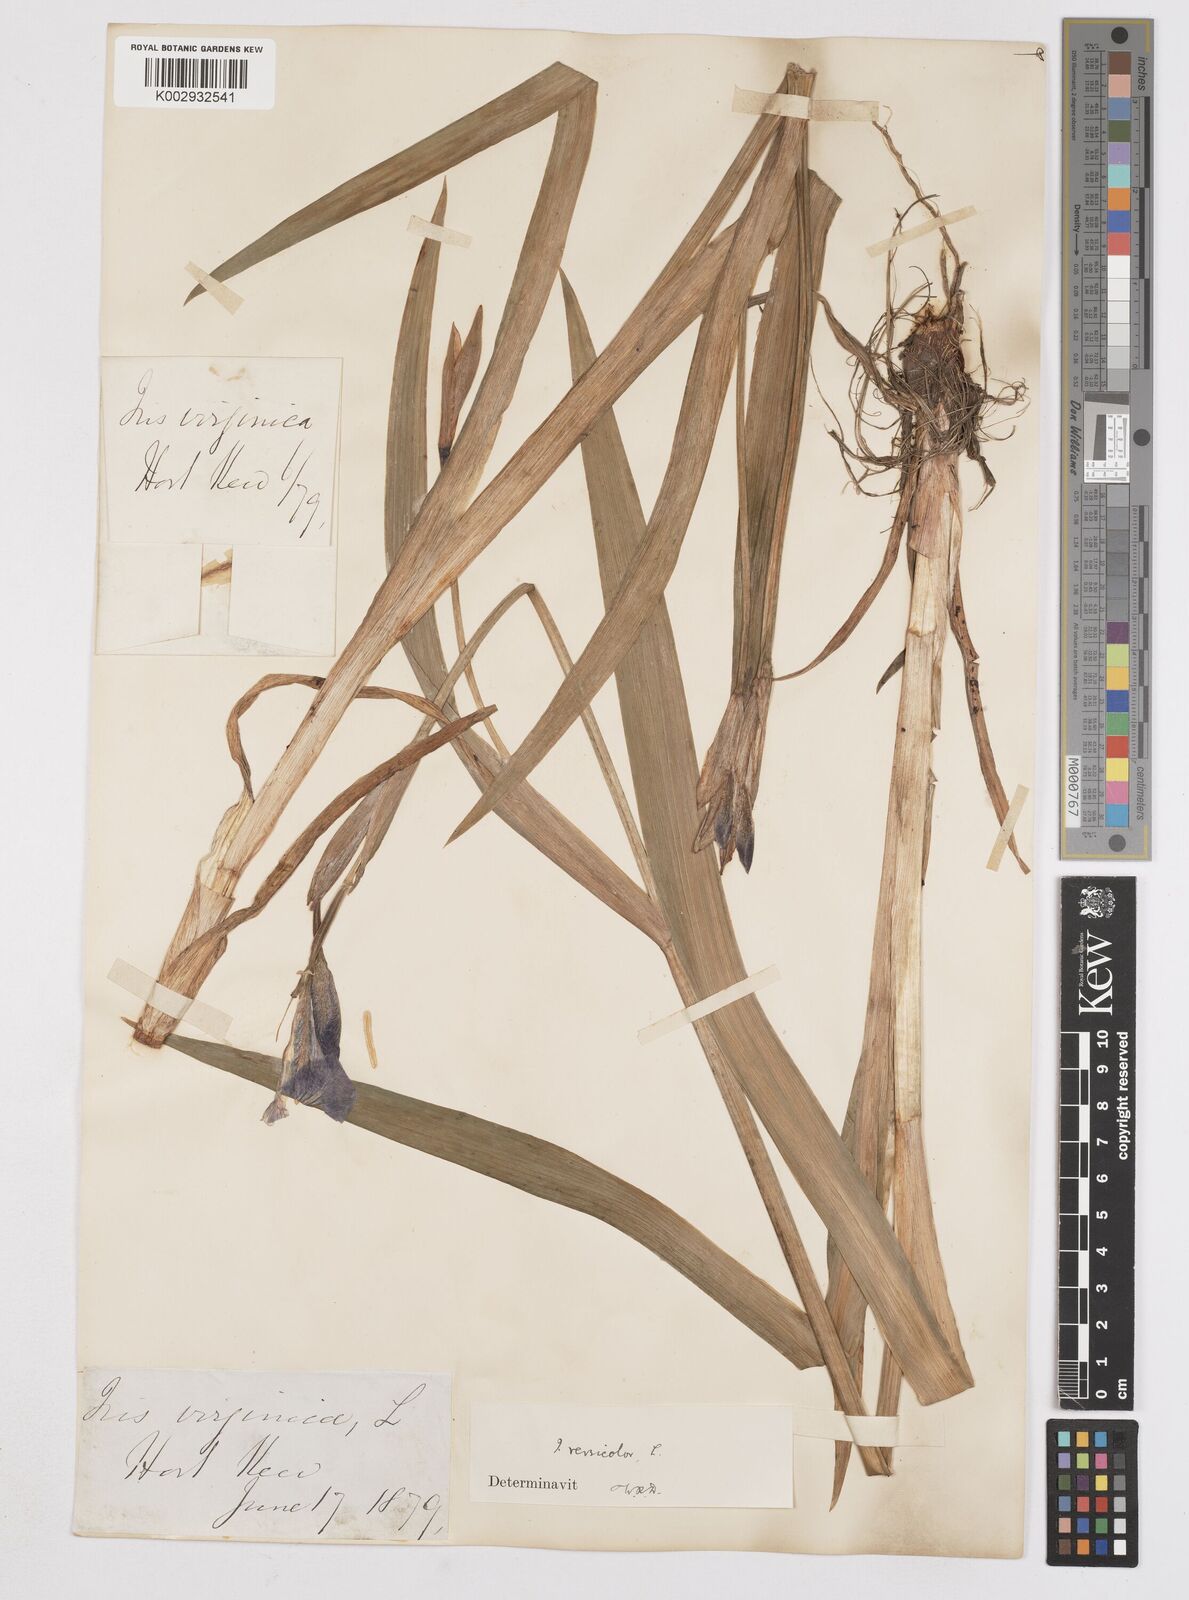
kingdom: Plantae
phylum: Tracheophyta
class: Liliopsida
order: Asparagales
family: Iridaceae
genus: Iris
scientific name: Iris versicolor
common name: Purple iris
